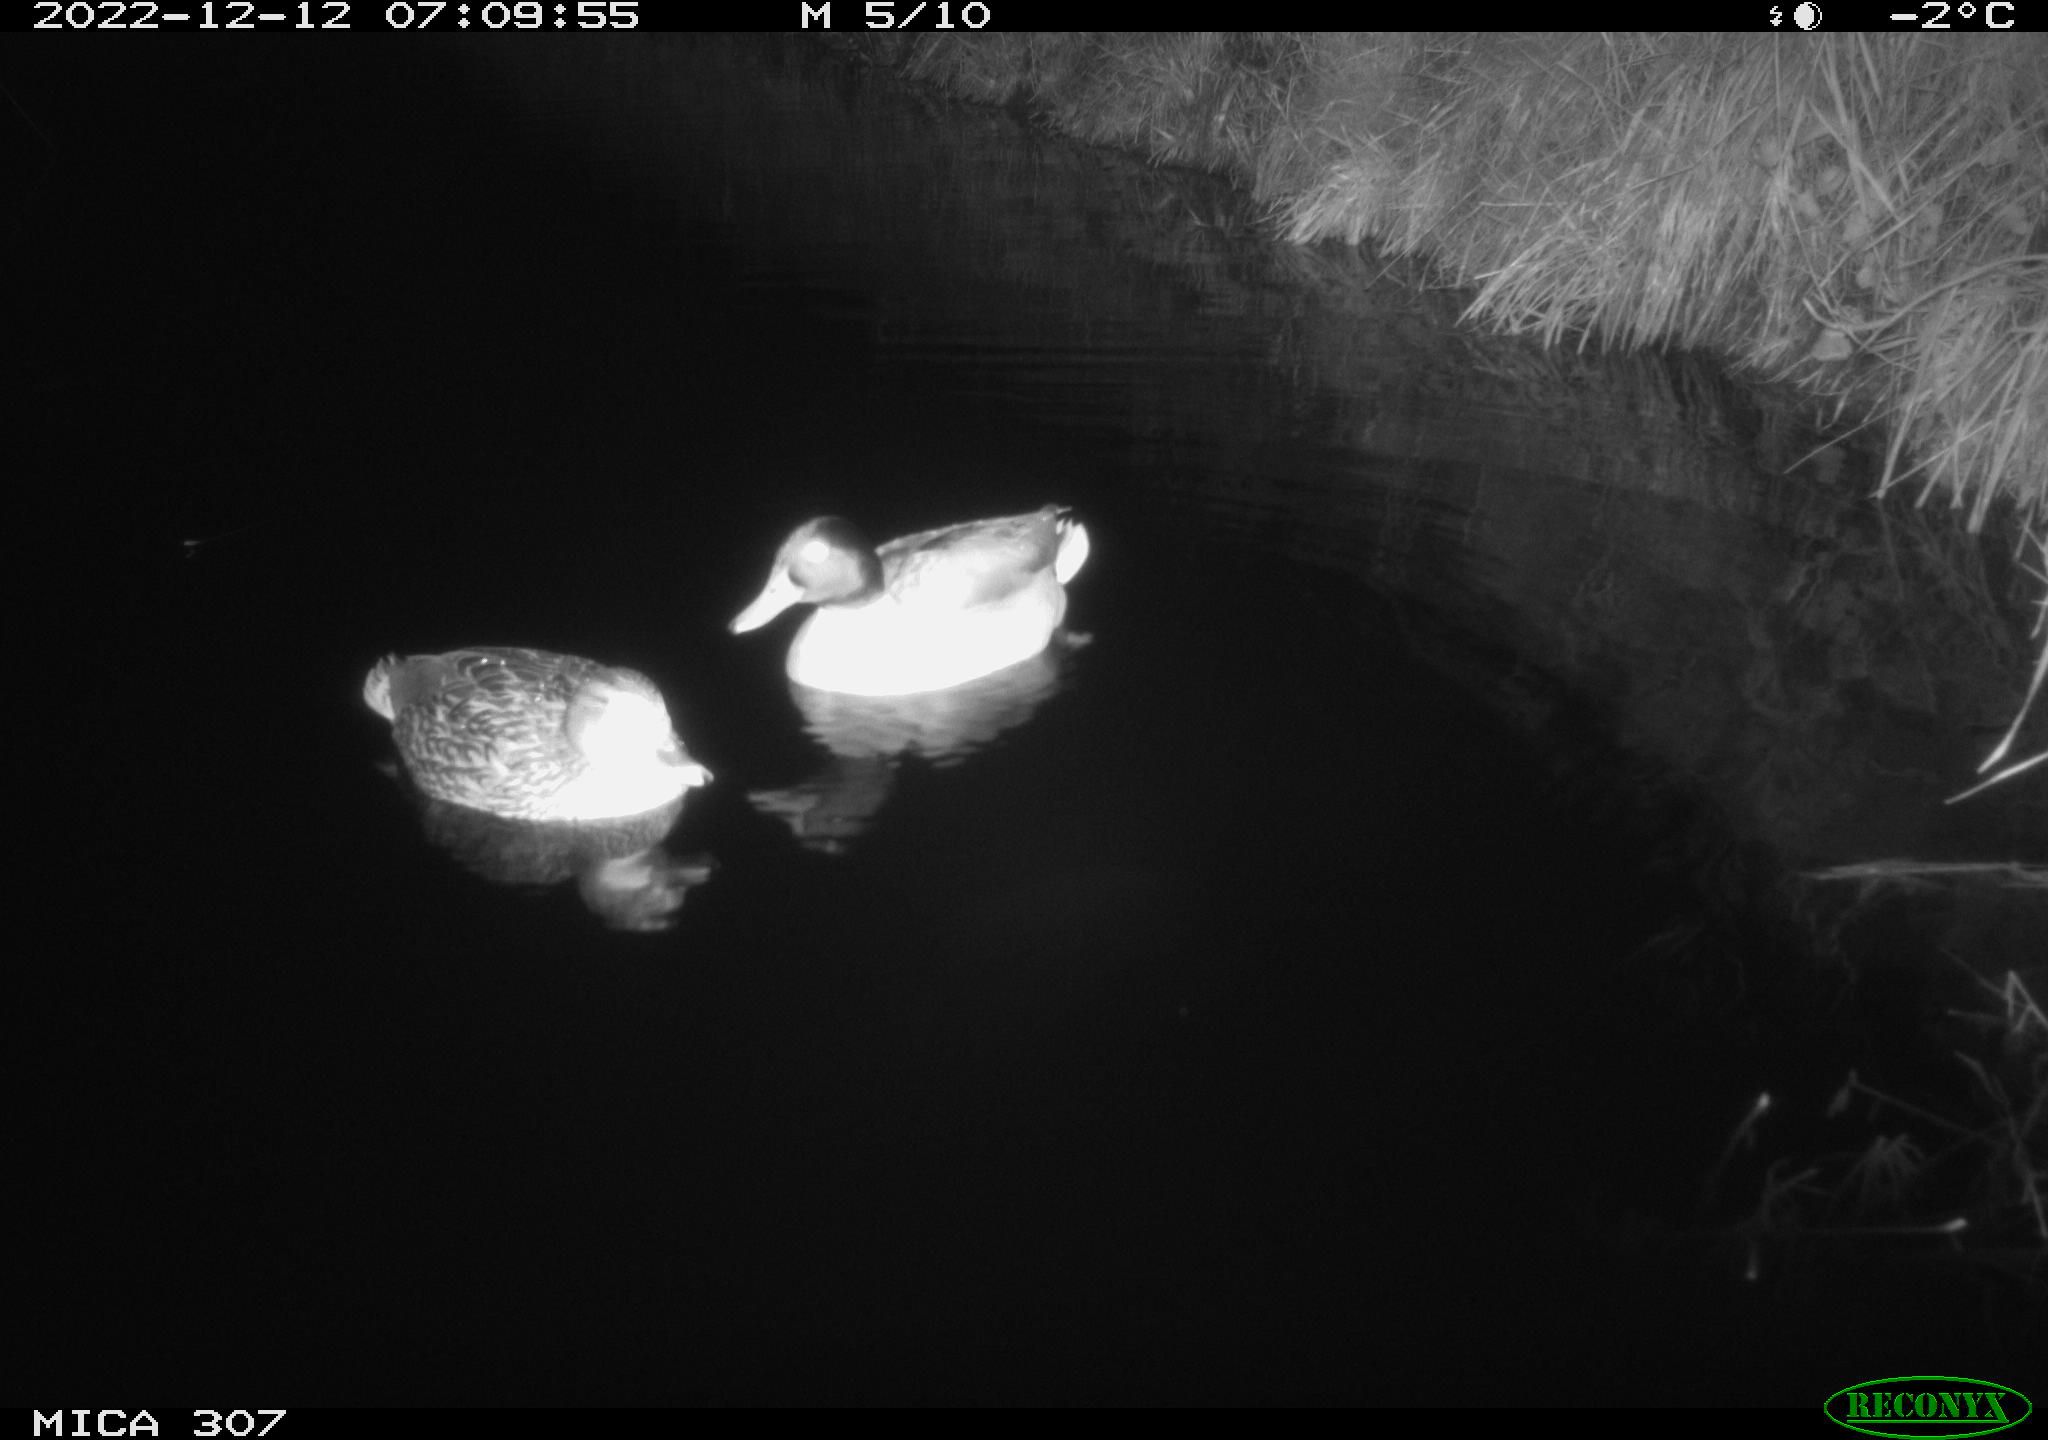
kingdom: Animalia
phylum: Chordata
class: Aves
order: Anseriformes
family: Anatidae
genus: Anas
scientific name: Anas
